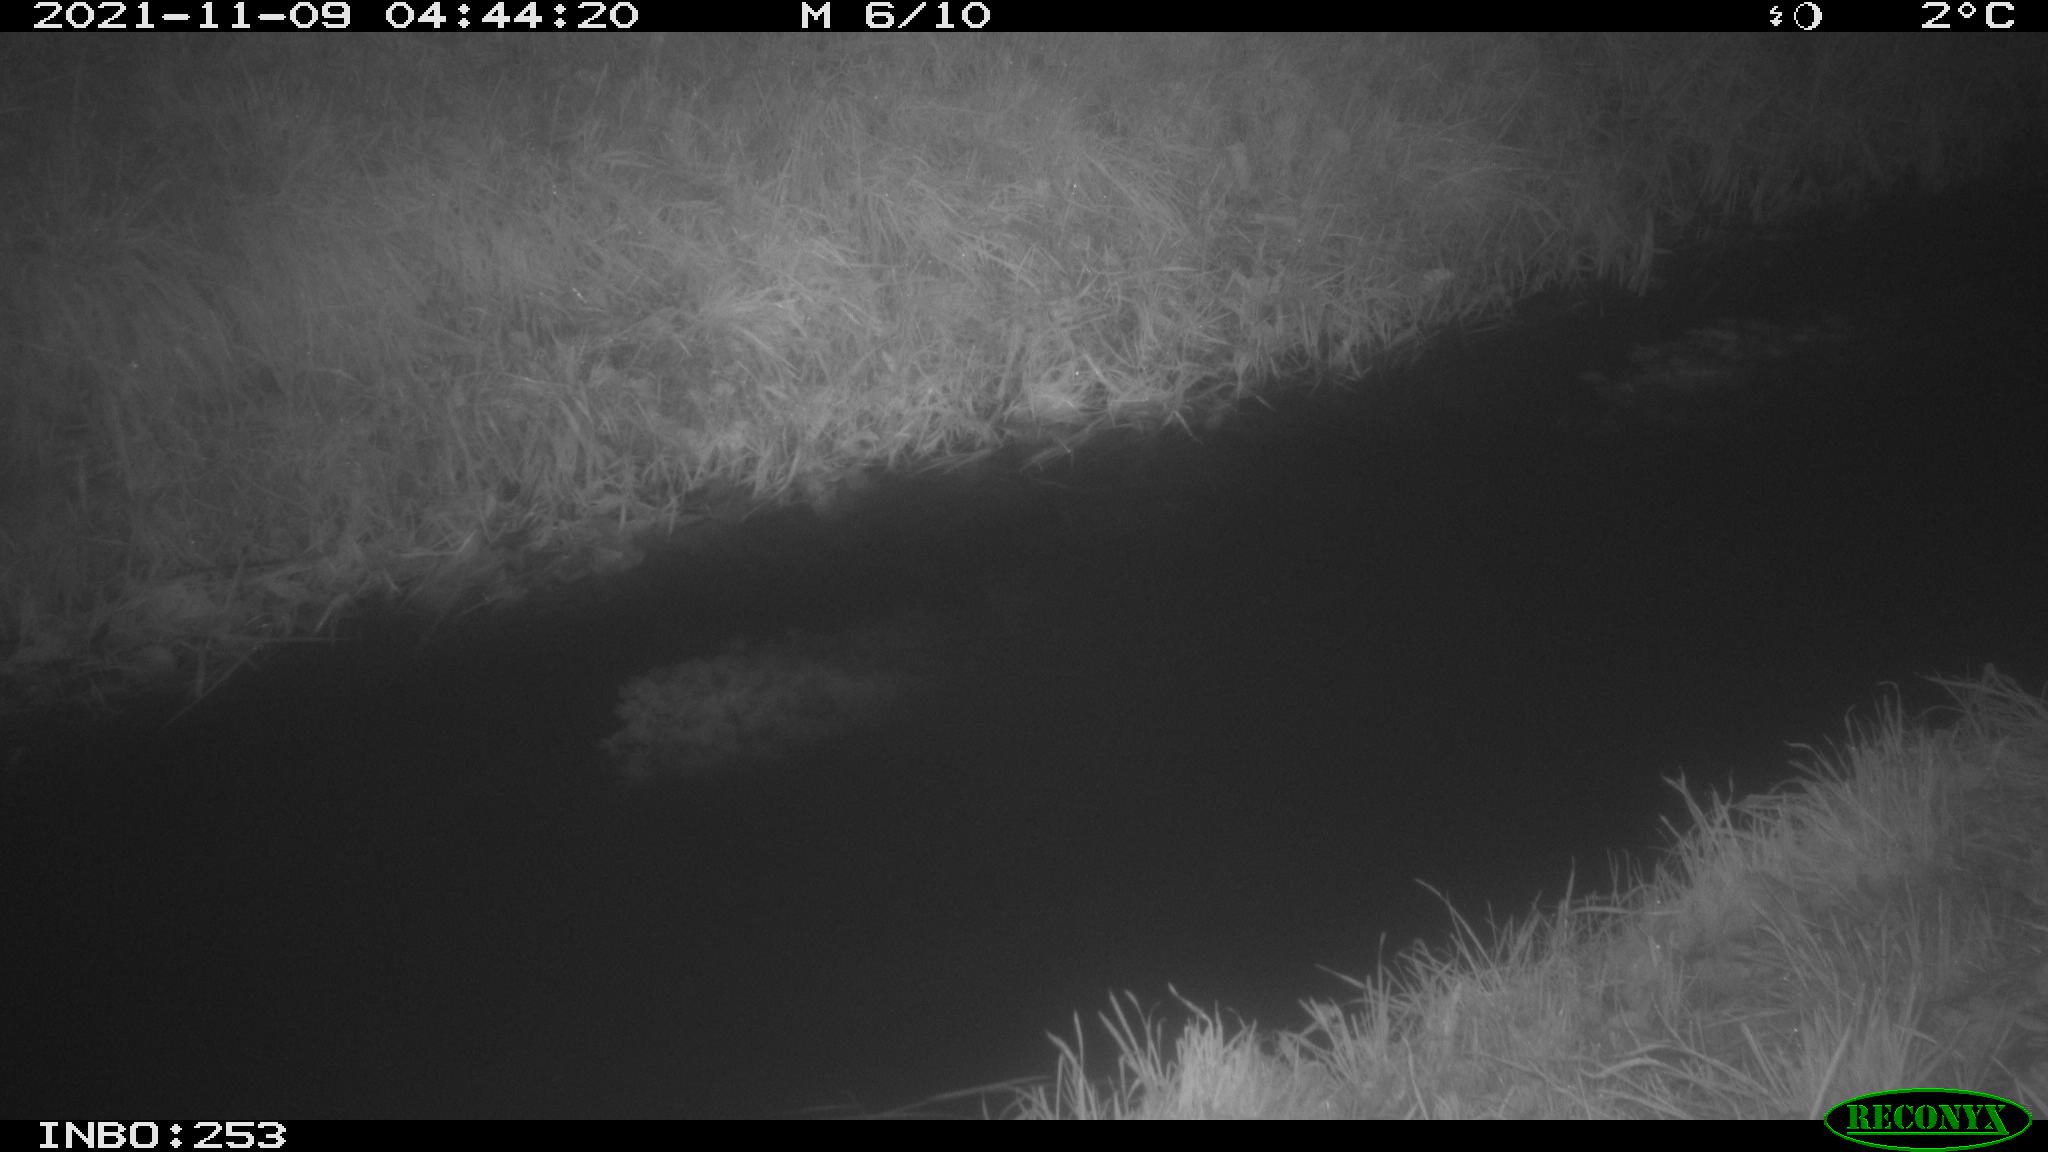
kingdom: Animalia
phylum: Chordata
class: Mammalia
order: Lagomorpha
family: Leporidae
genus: Lepus
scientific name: Lepus europaeus
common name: European hare
